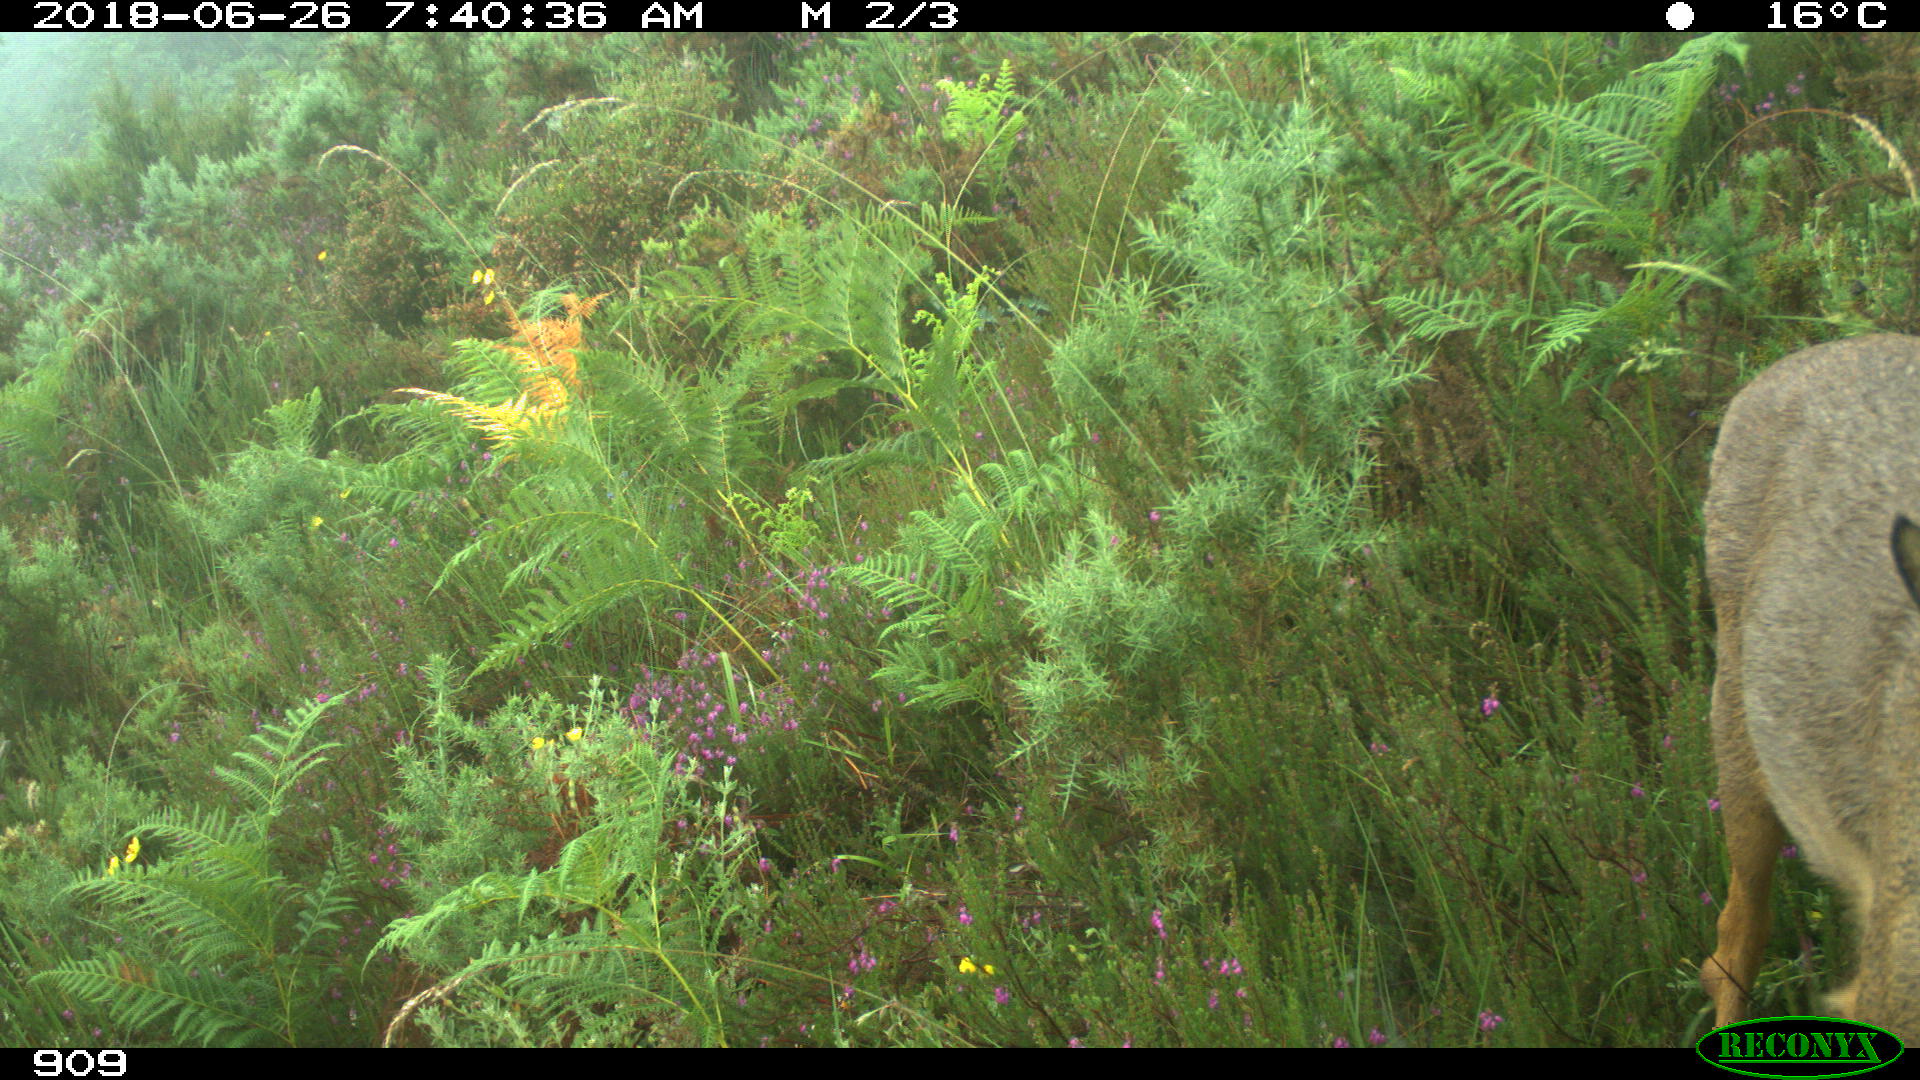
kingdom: Animalia
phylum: Chordata
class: Mammalia
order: Artiodactyla
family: Cervidae
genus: Capreolus
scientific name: Capreolus capreolus
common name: Western roe deer
